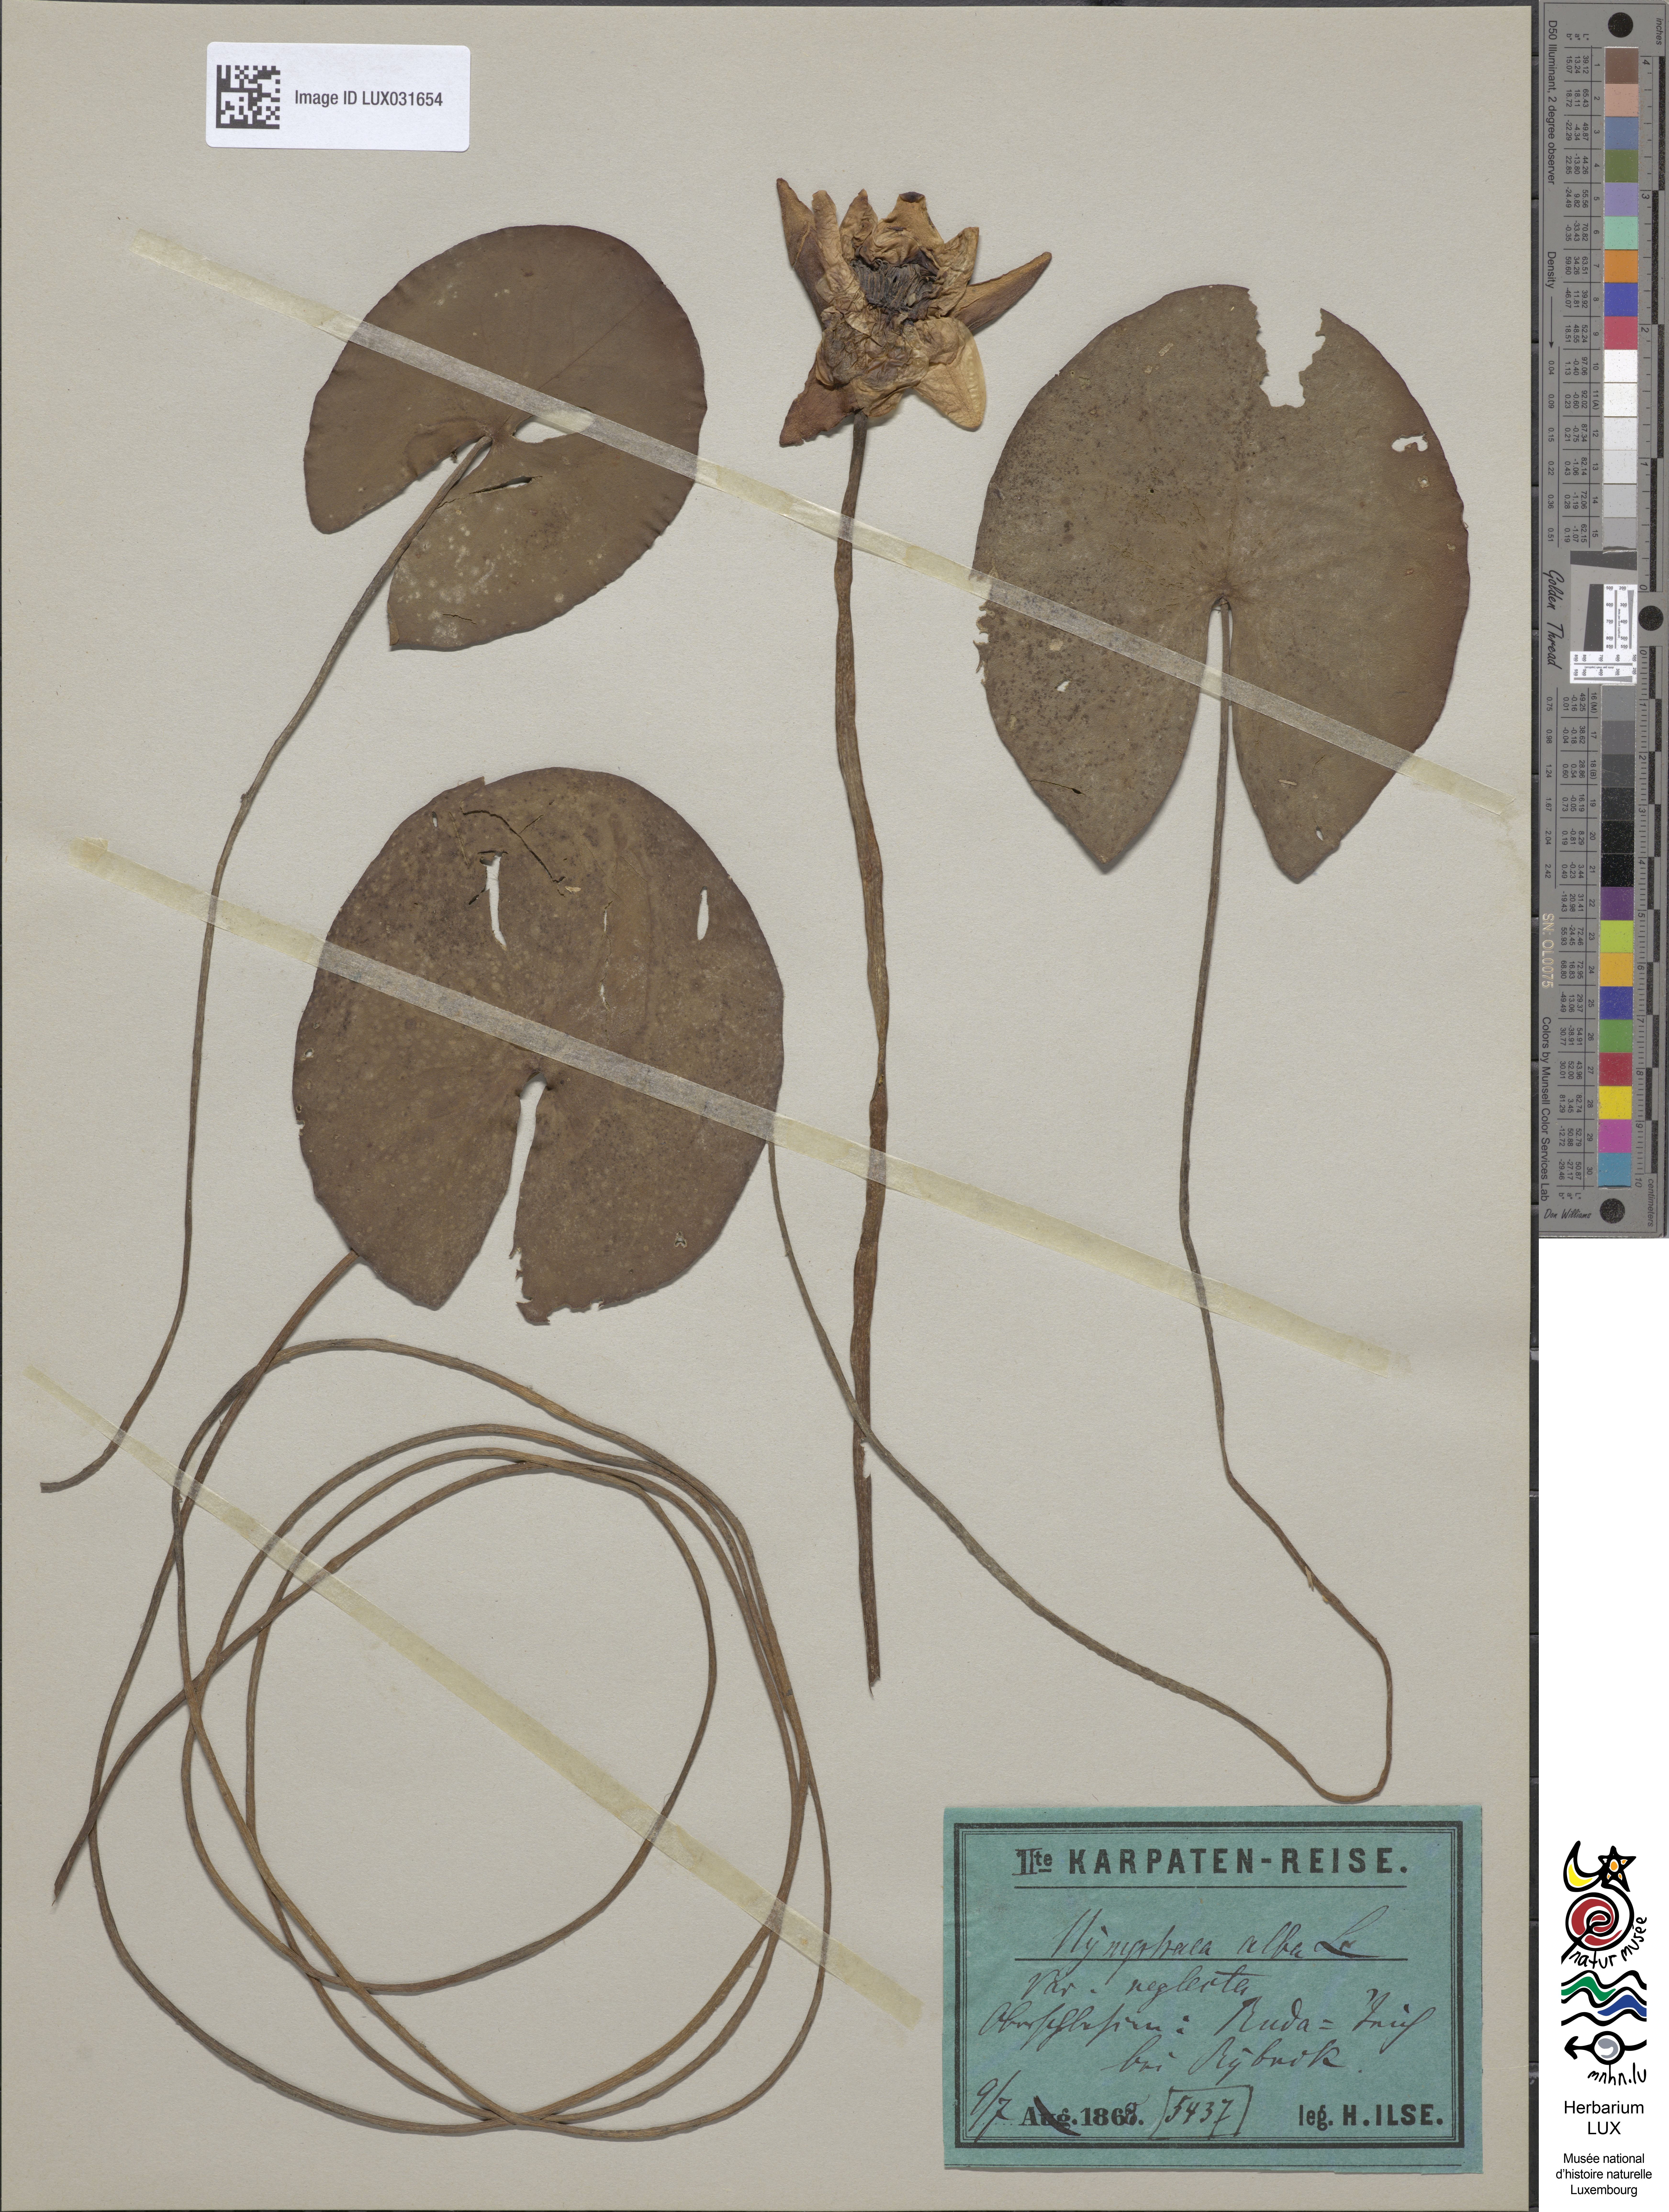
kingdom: Plantae
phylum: Tracheophyta
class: Magnoliopsida
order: Nymphaeales
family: Nymphaeaceae
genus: Nymphaea
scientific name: Nymphaea alba
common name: White water-lily
